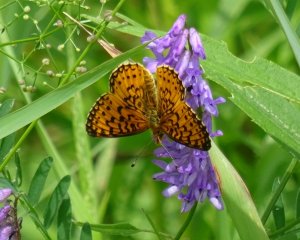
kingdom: Animalia
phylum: Arthropoda
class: Insecta
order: Lepidoptera
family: Nymphalidae
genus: Boloria
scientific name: Boloria selene
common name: Silver-bordered Fritillary
